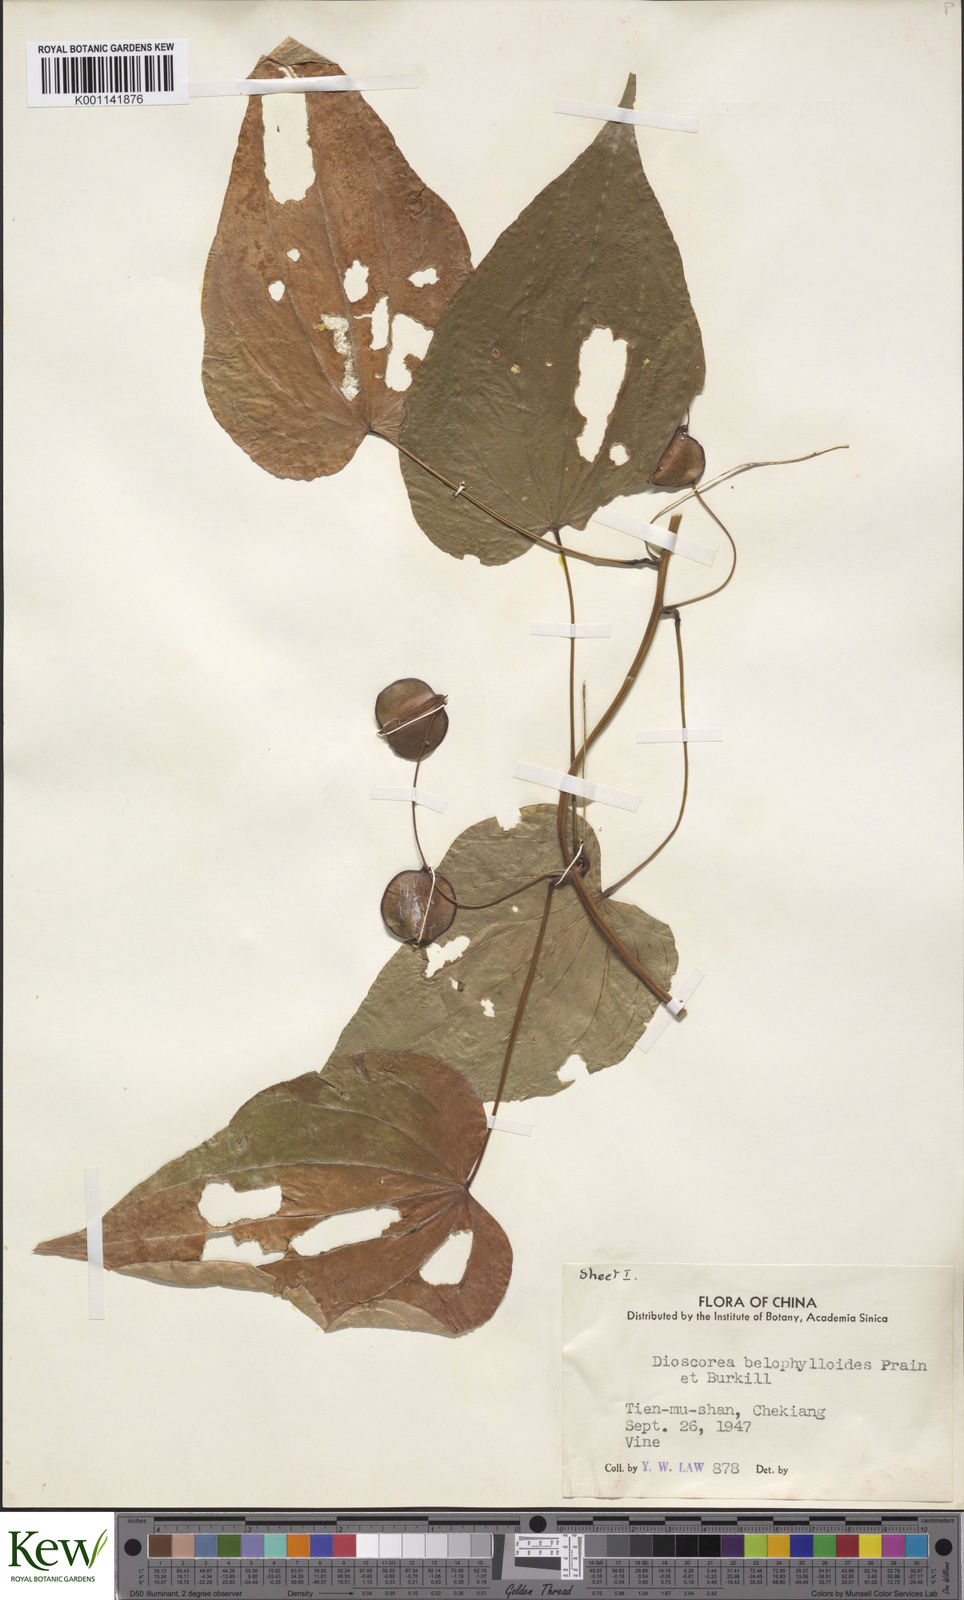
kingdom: Plantae
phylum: Tracheophyta
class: Liliopsida
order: Dioscoreales
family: Dioscoreaceae
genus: Dioscorea
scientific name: Dioscorea japonica
